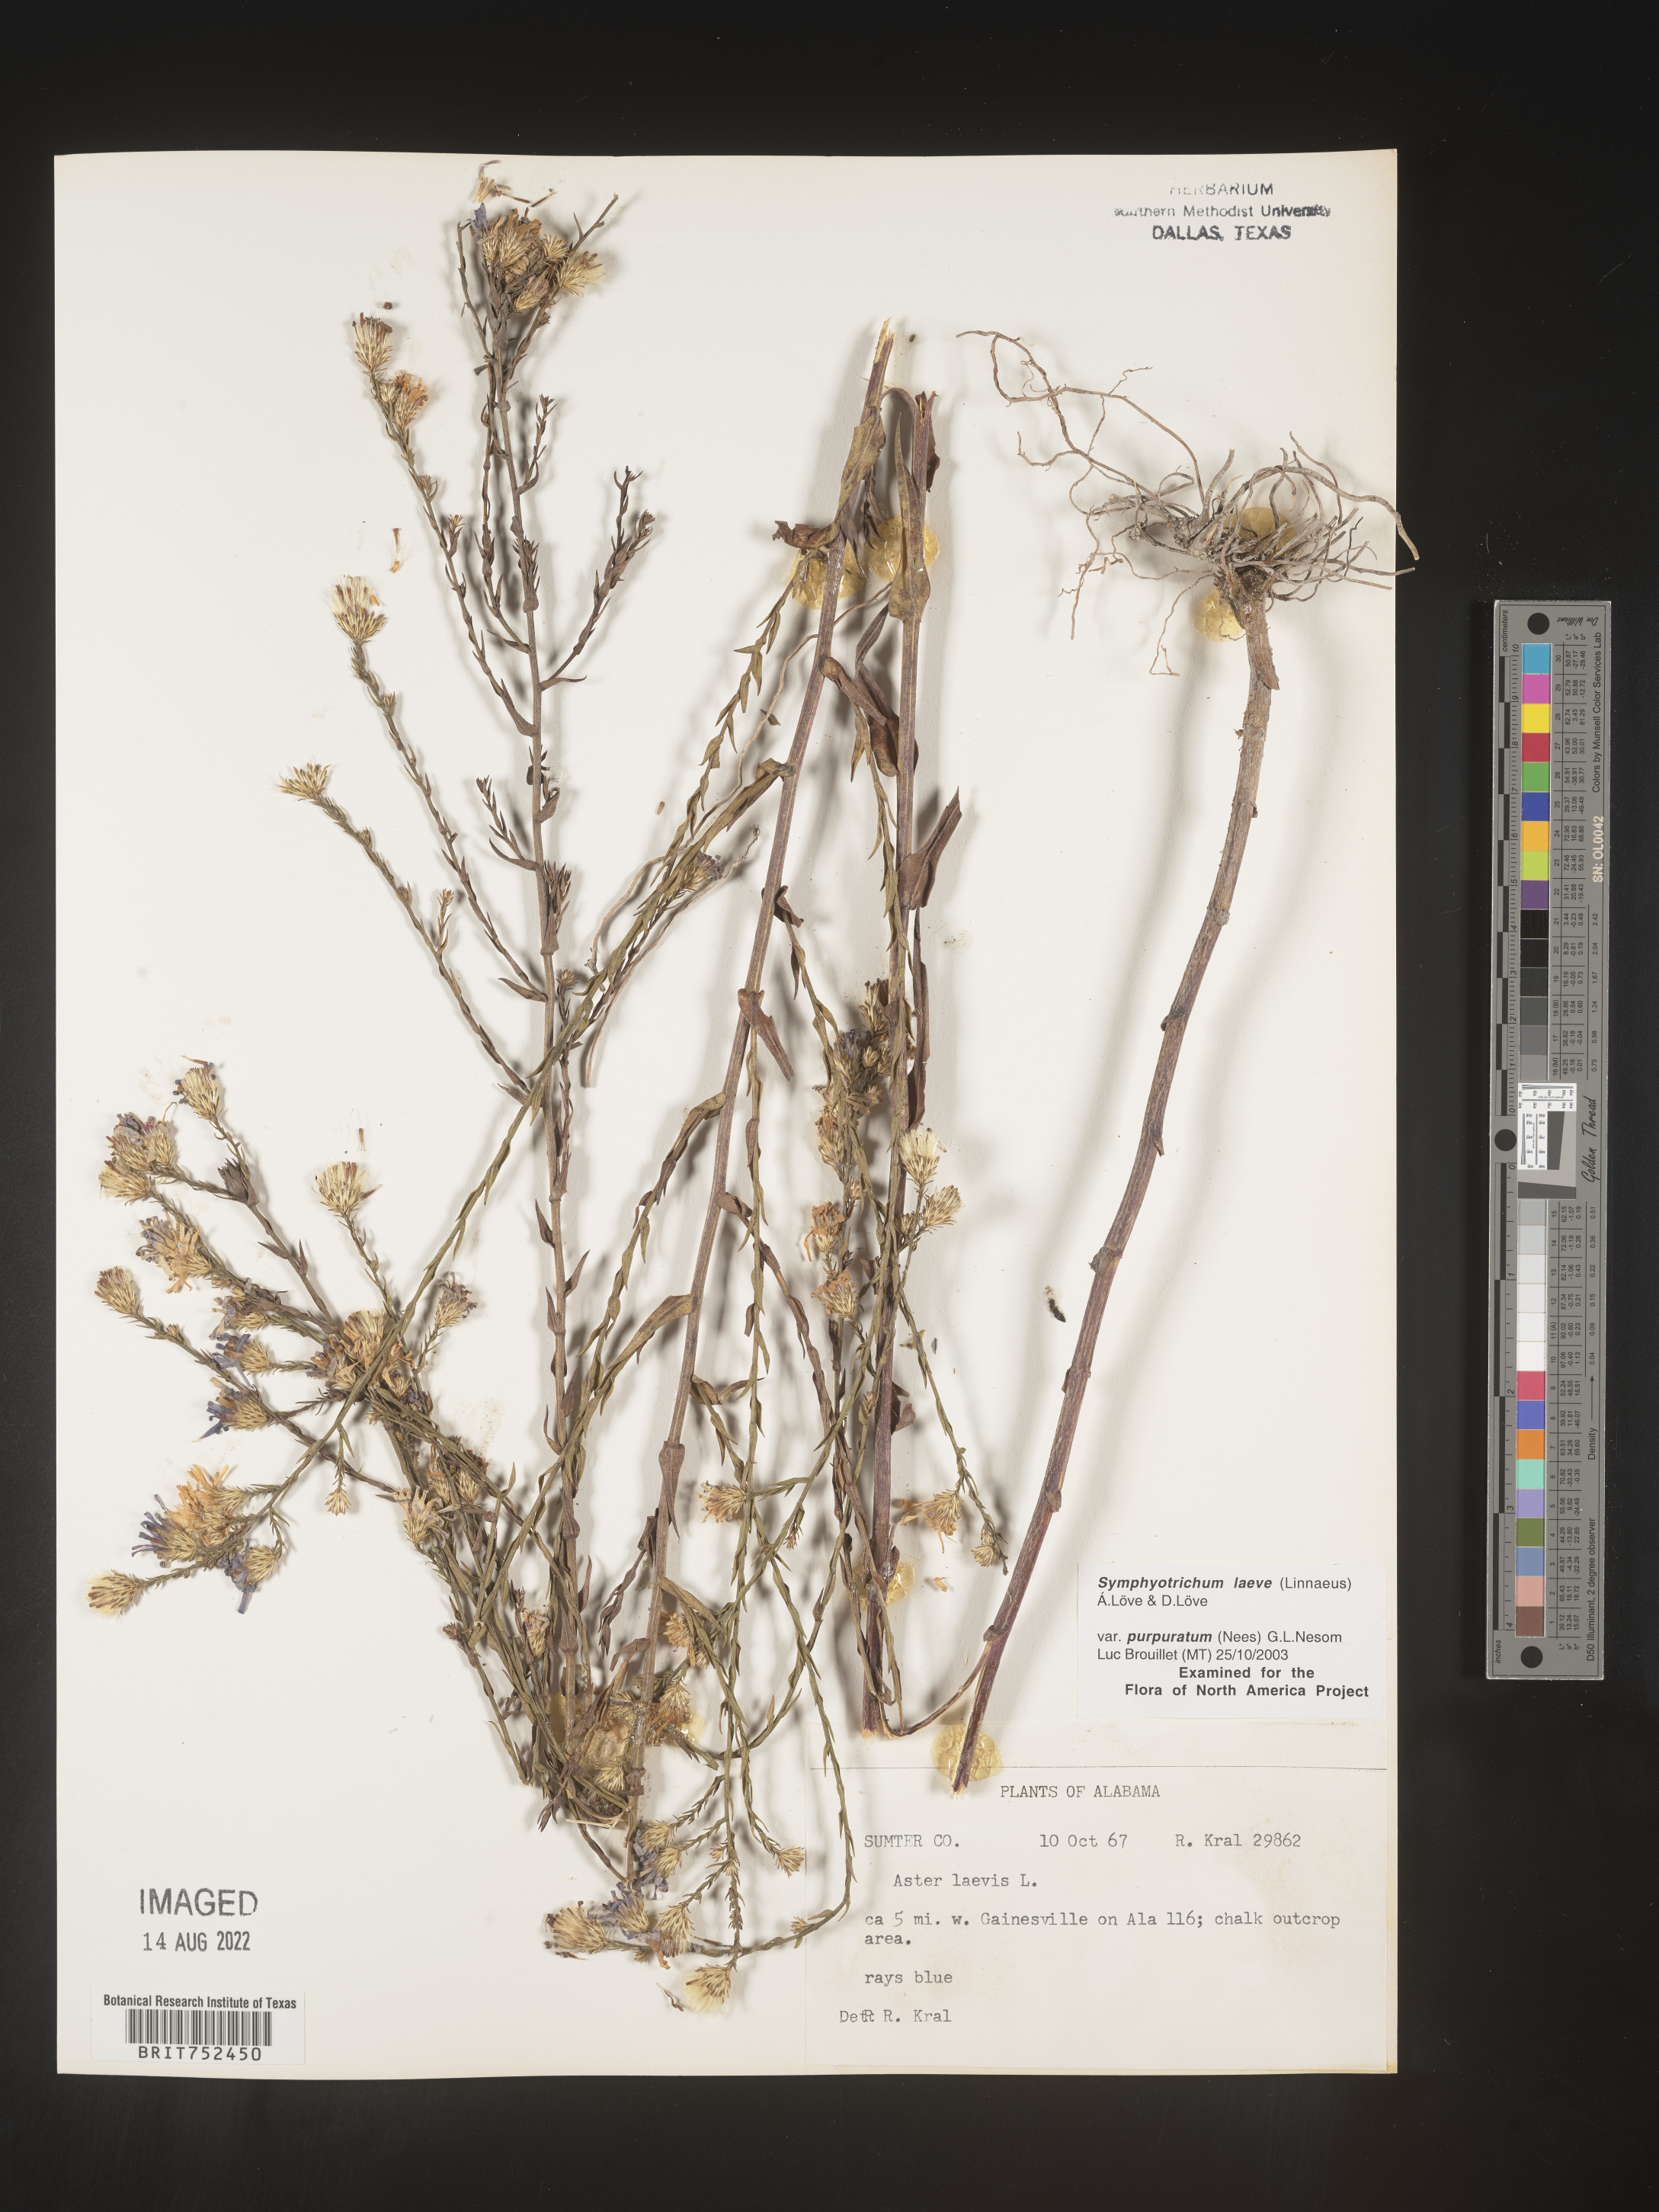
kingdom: Plantae
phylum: Tracheophyta
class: Magnoliopsida
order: Asterales
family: Asteraceae
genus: Symphyotrichum
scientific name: Symphyotrichum laeve
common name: Glaucous aster
